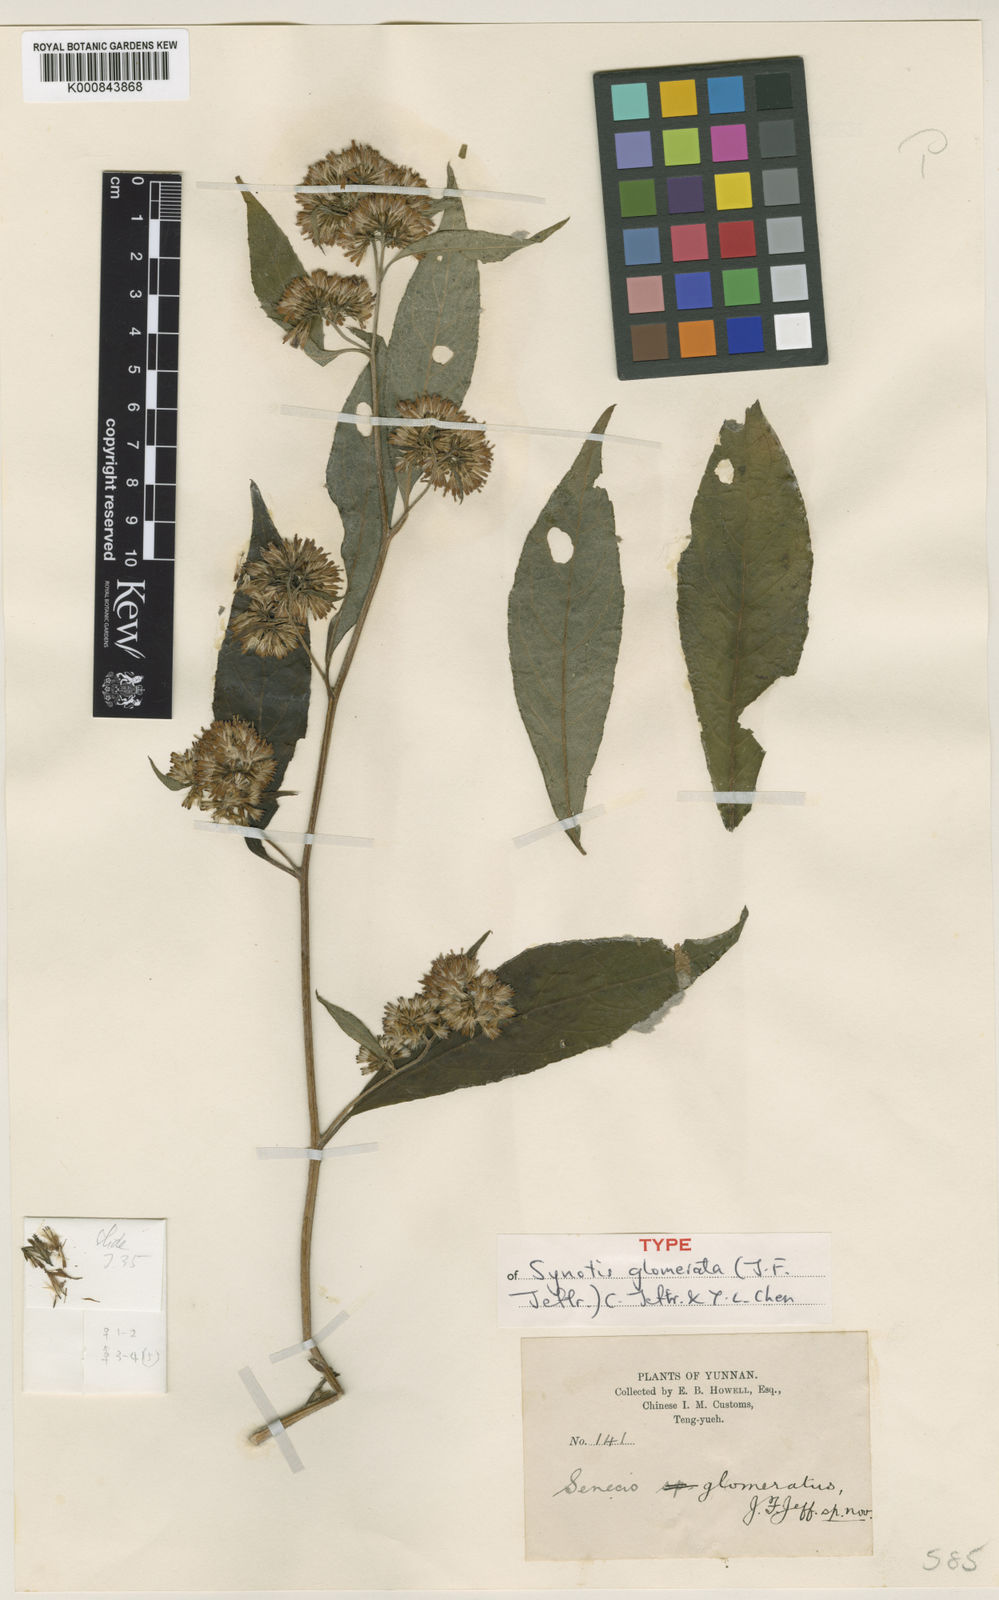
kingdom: Plantae
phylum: Tracheophyta
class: Magnoliopsida
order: Asterales
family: Asteraceae
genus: Synotis
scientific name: Synotis glomerata
